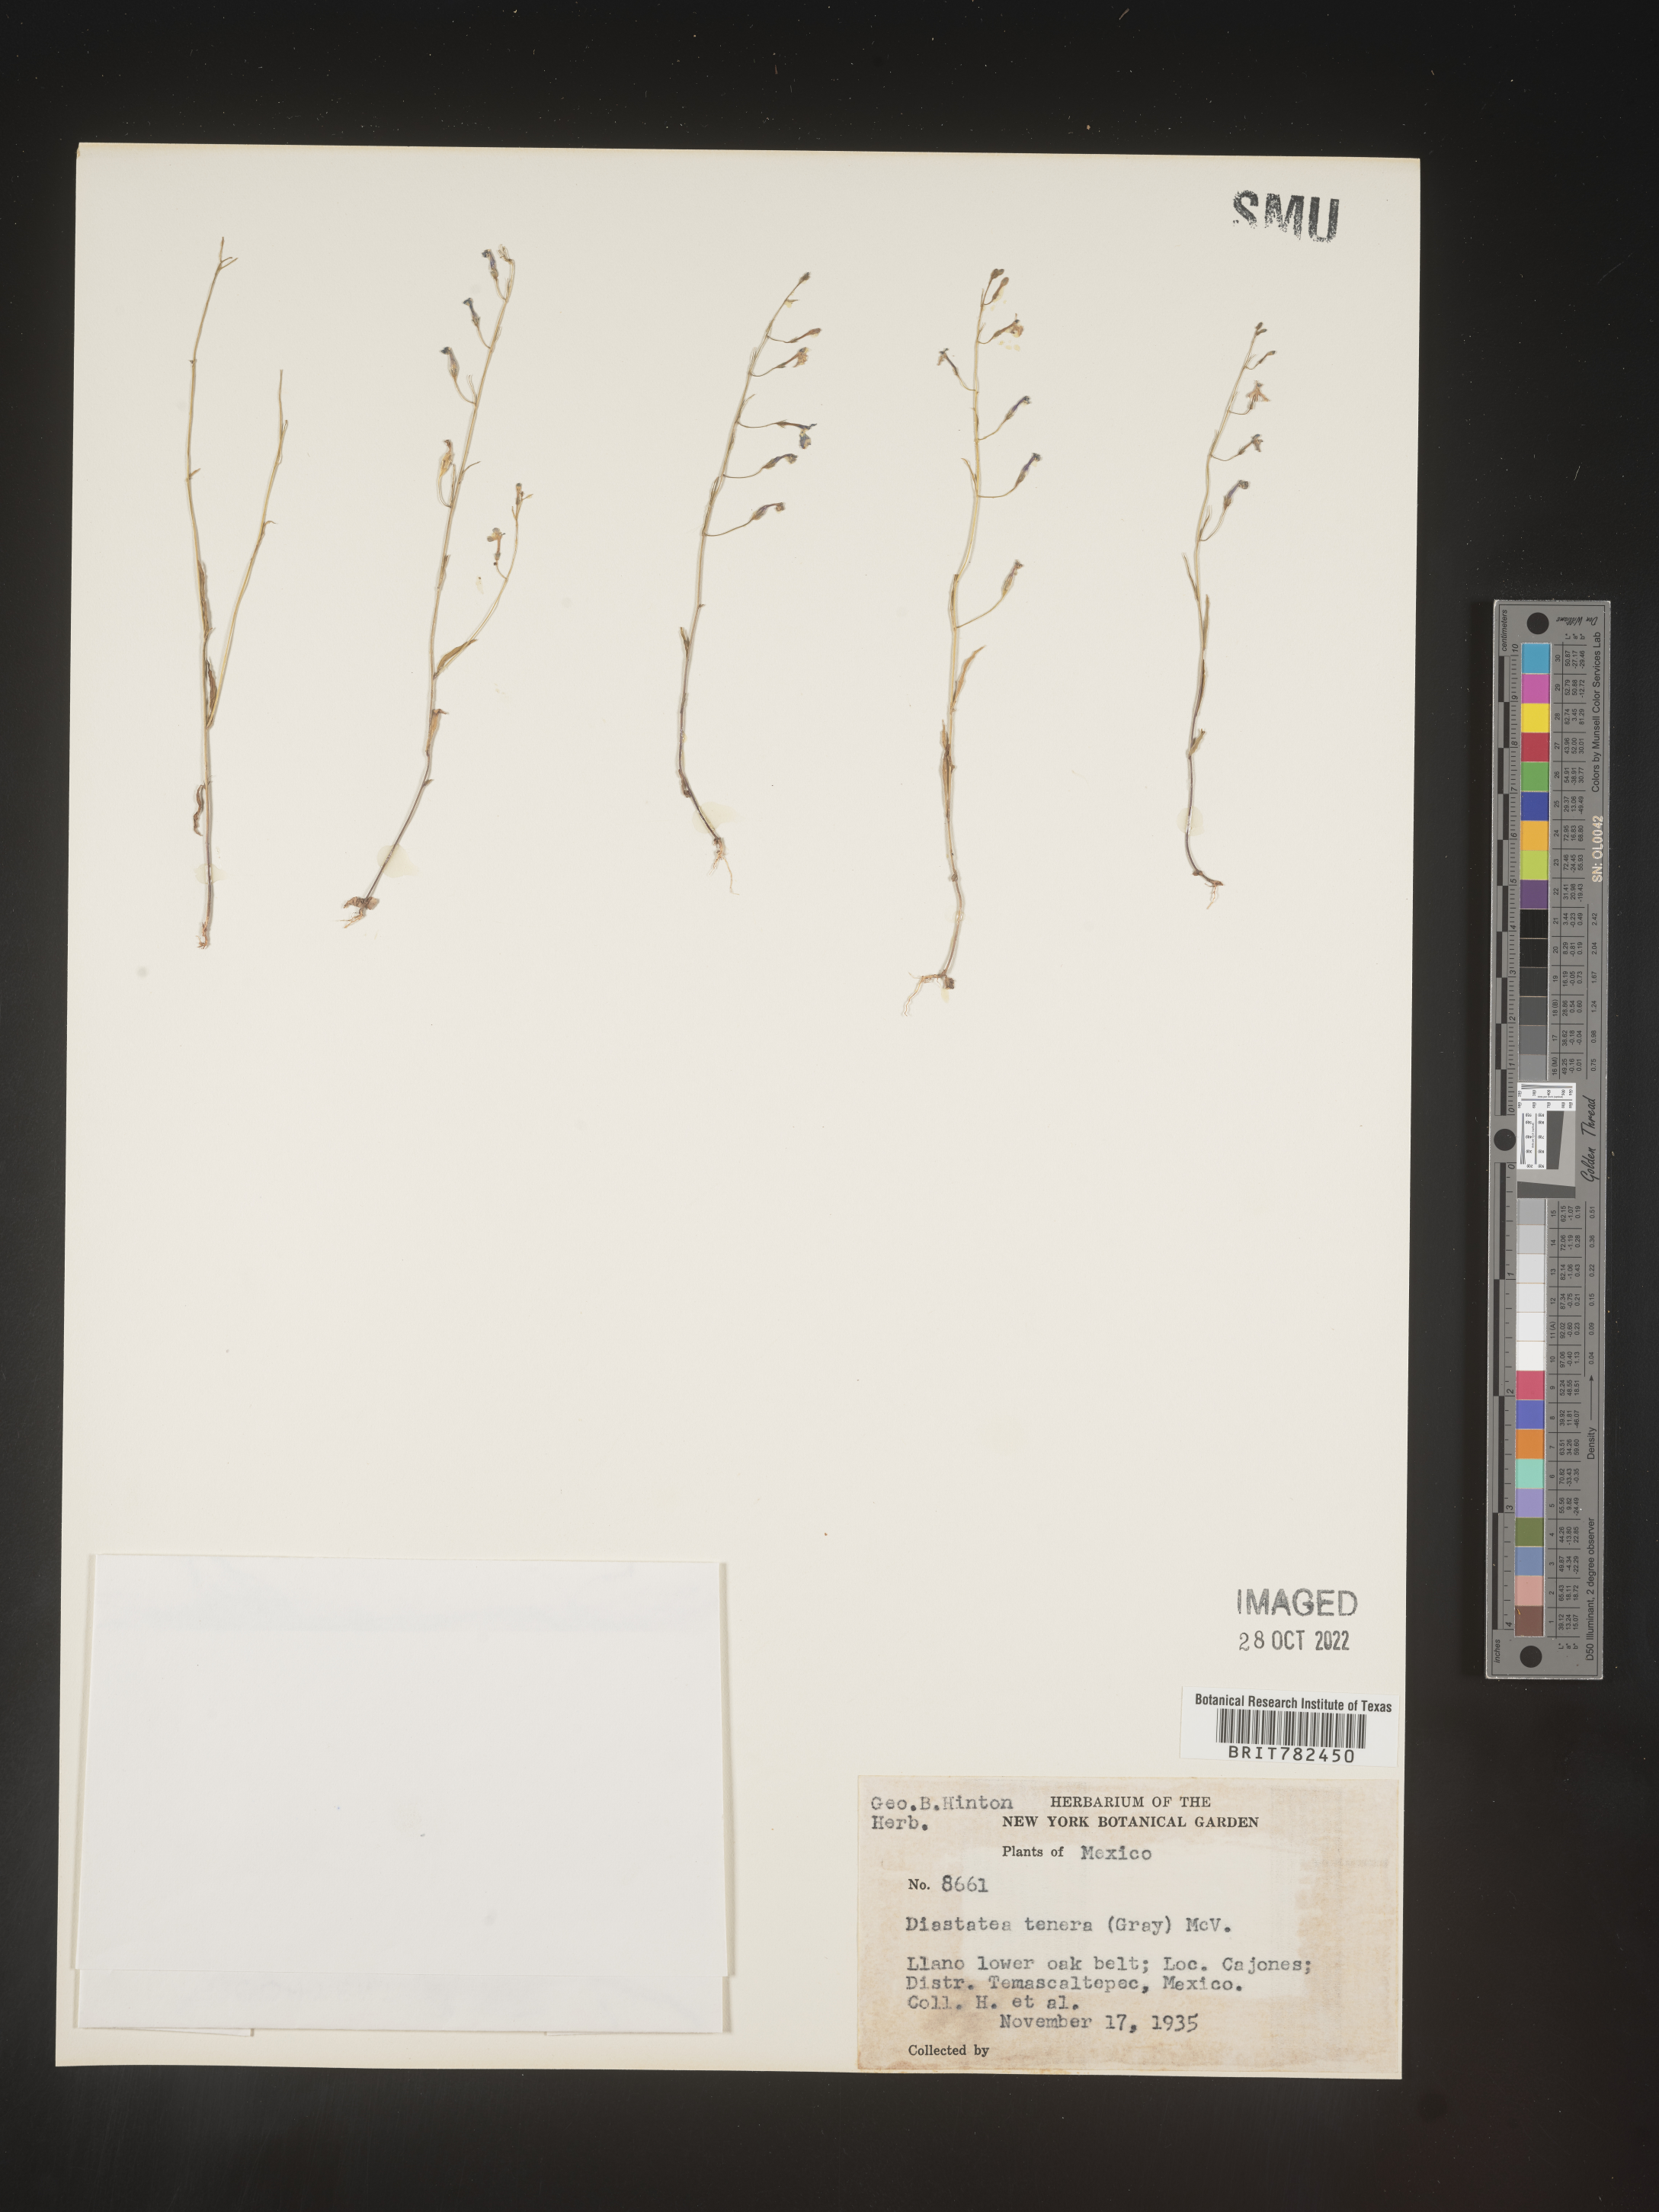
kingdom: Plantae
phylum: Tracheophyta
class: Magnoliopsida
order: Asterales
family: Campanulaceae
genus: Diastatea
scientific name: Diastatea
